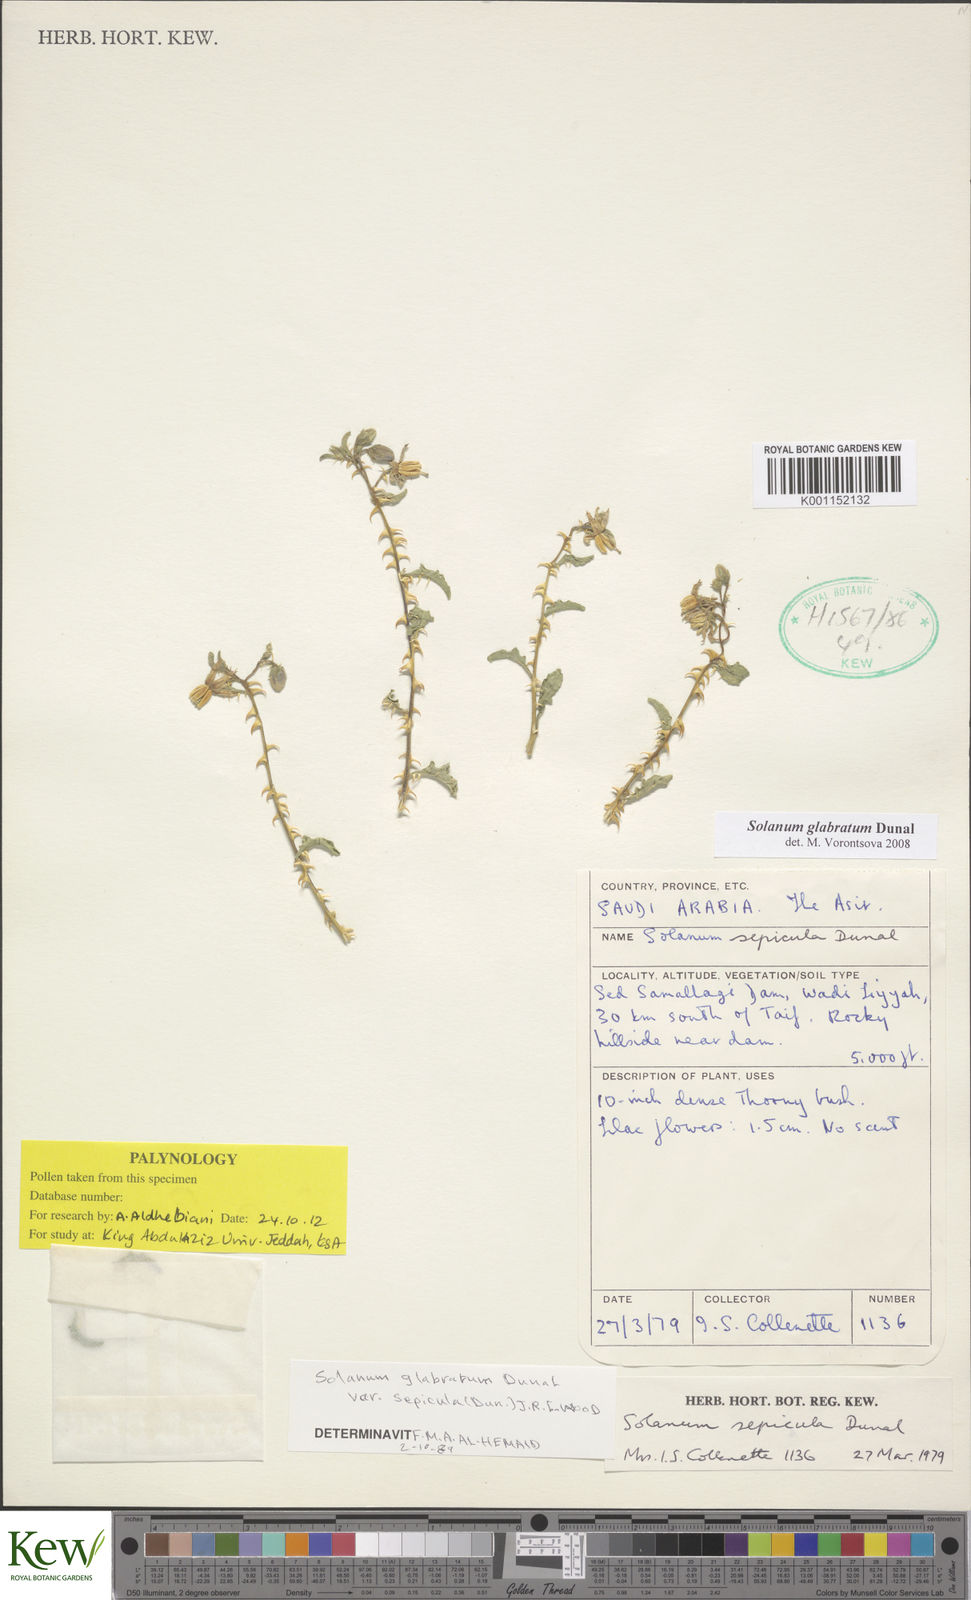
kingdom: Plantae
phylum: Tracheophyta
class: Magnoliopsida
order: Solanales
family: Solanaceae
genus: Solanum
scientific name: Solanum glabratum
